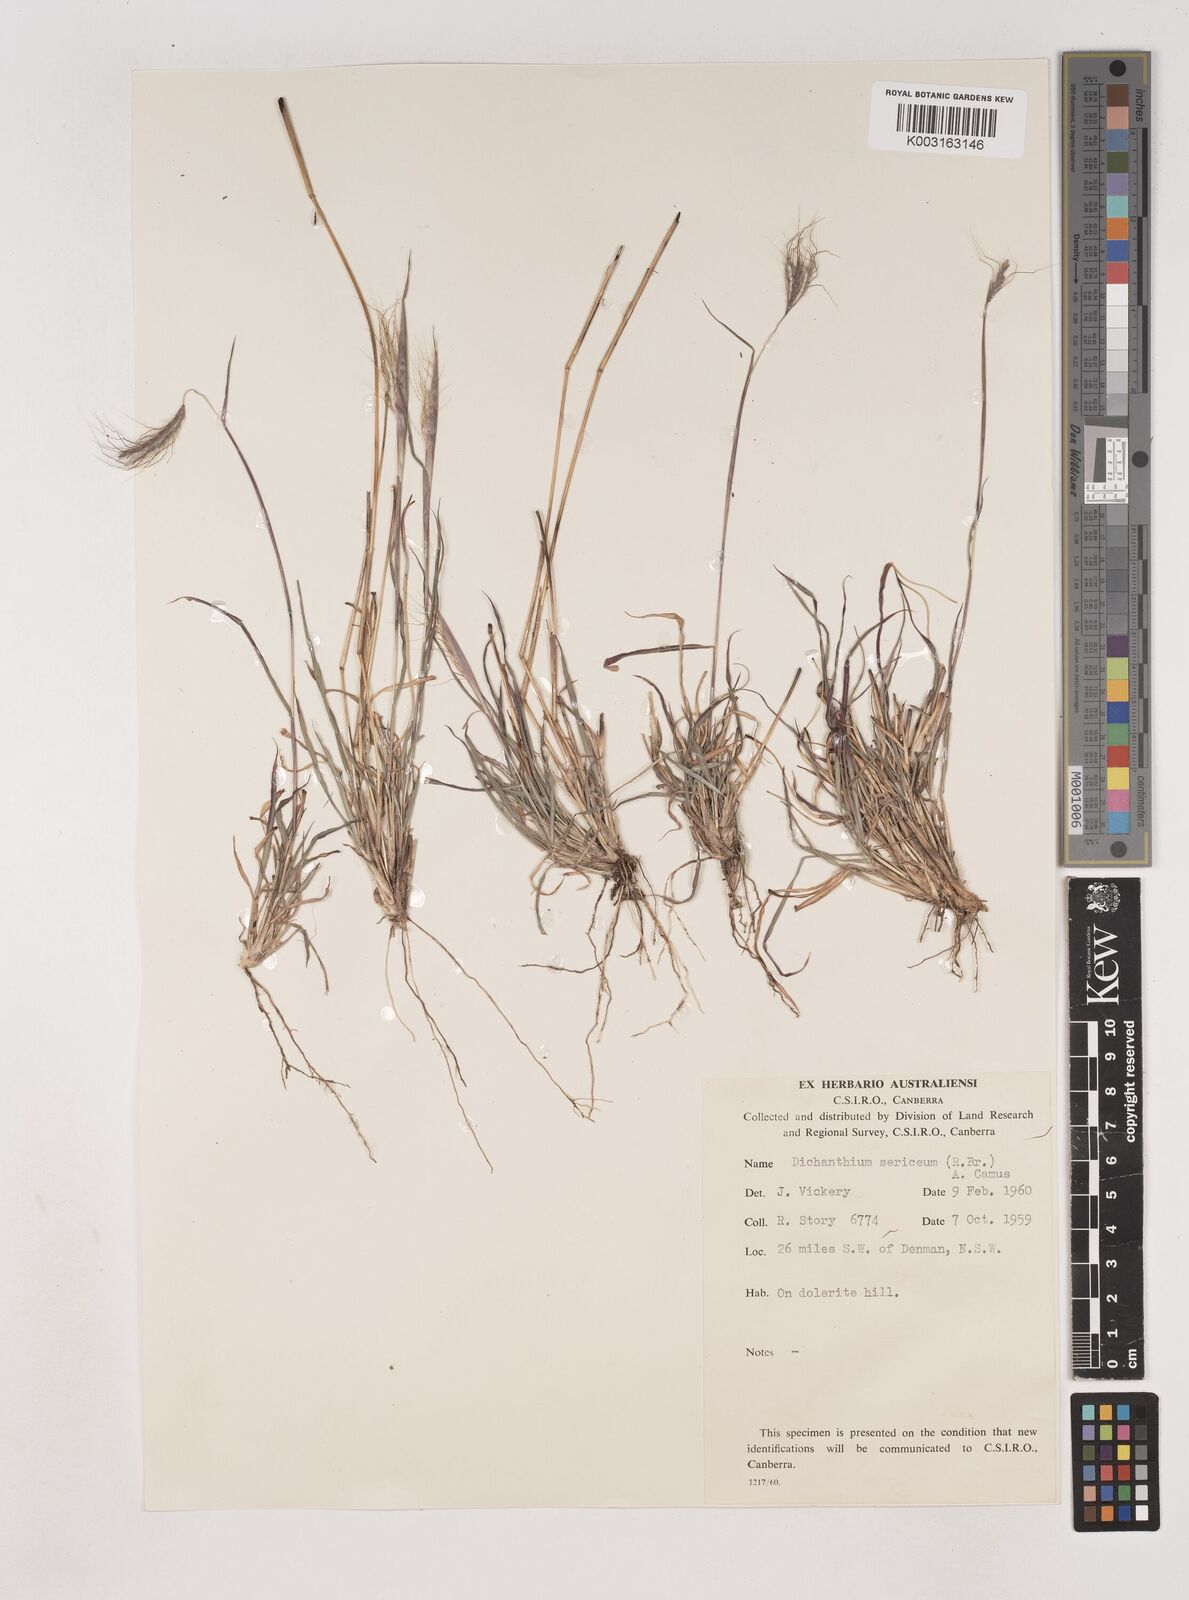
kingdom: Plantae
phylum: Tracheophyta
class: Liliopsida
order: Poales
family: Poaceae
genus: Dichanthium
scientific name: Dichanthium sericeum
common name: Silky bluestem
